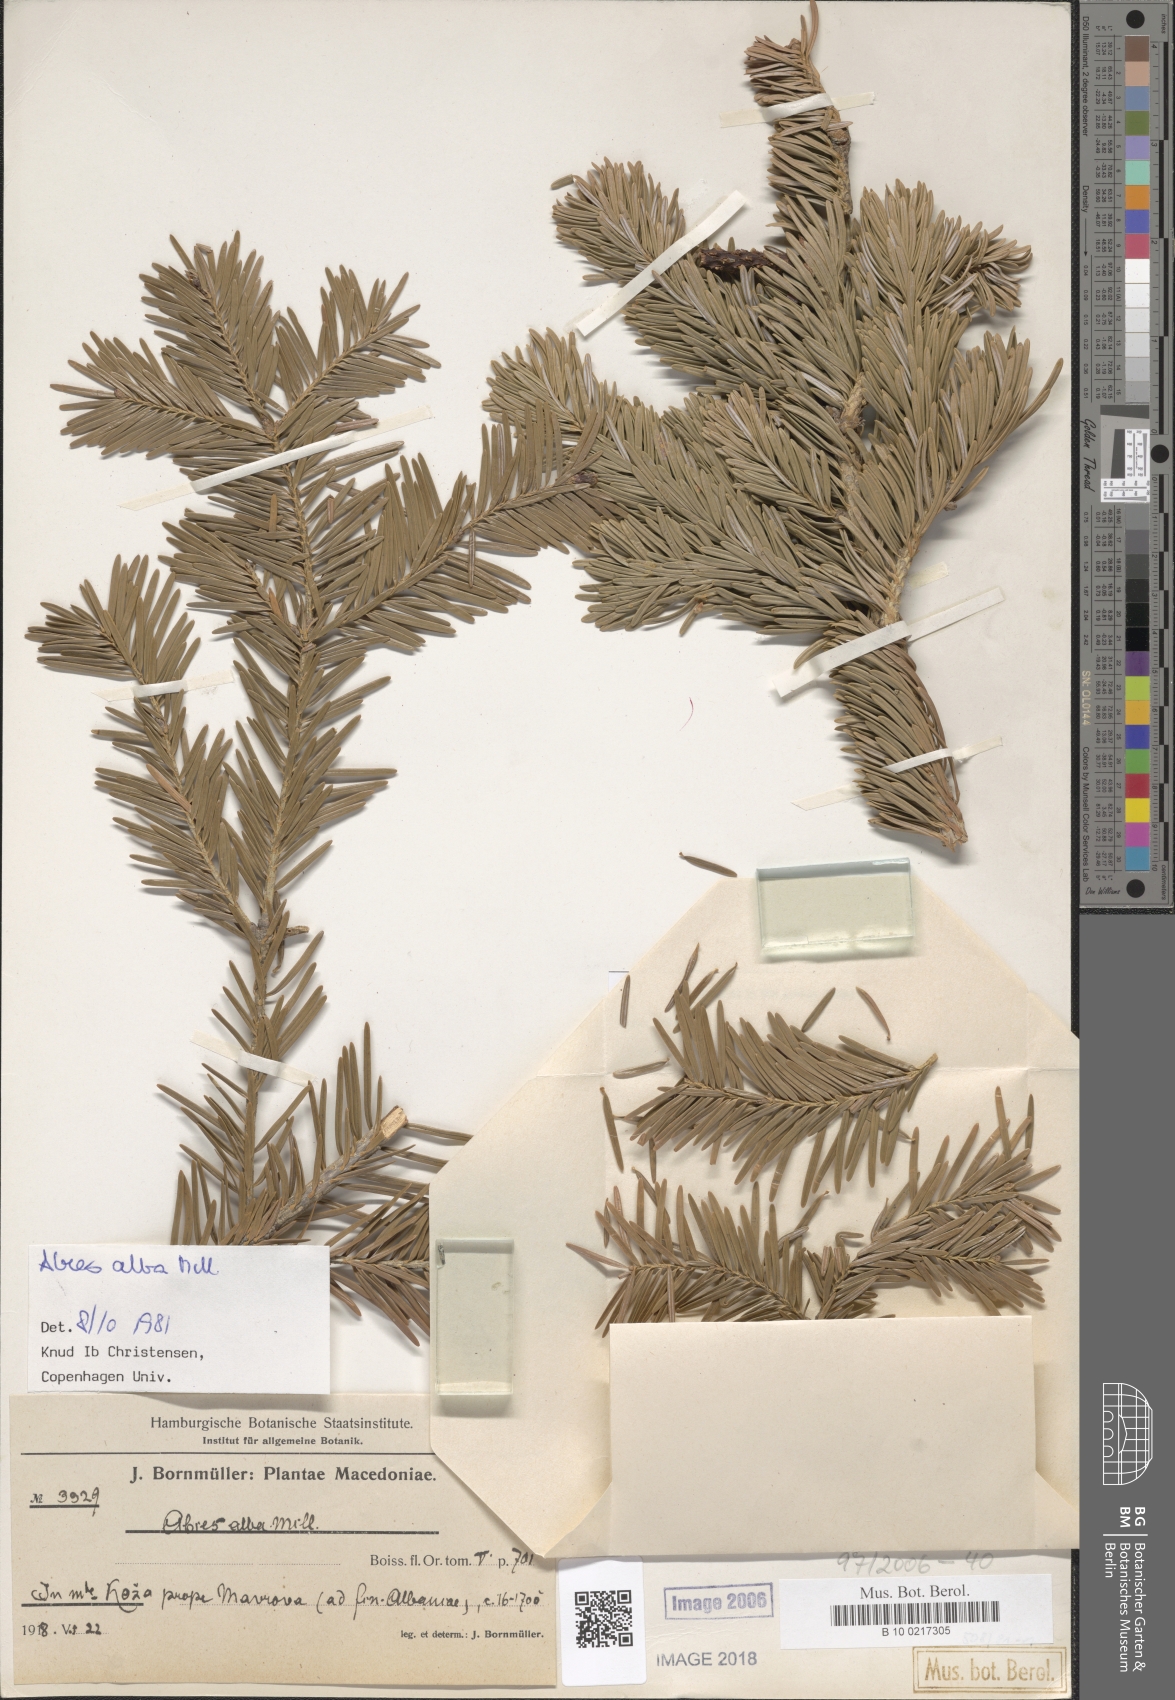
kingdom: Plantae
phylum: Tracheophyta
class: Pinopsida
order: Pinales
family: Pinaceae
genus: Abies
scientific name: Abies alba
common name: Silver fir
